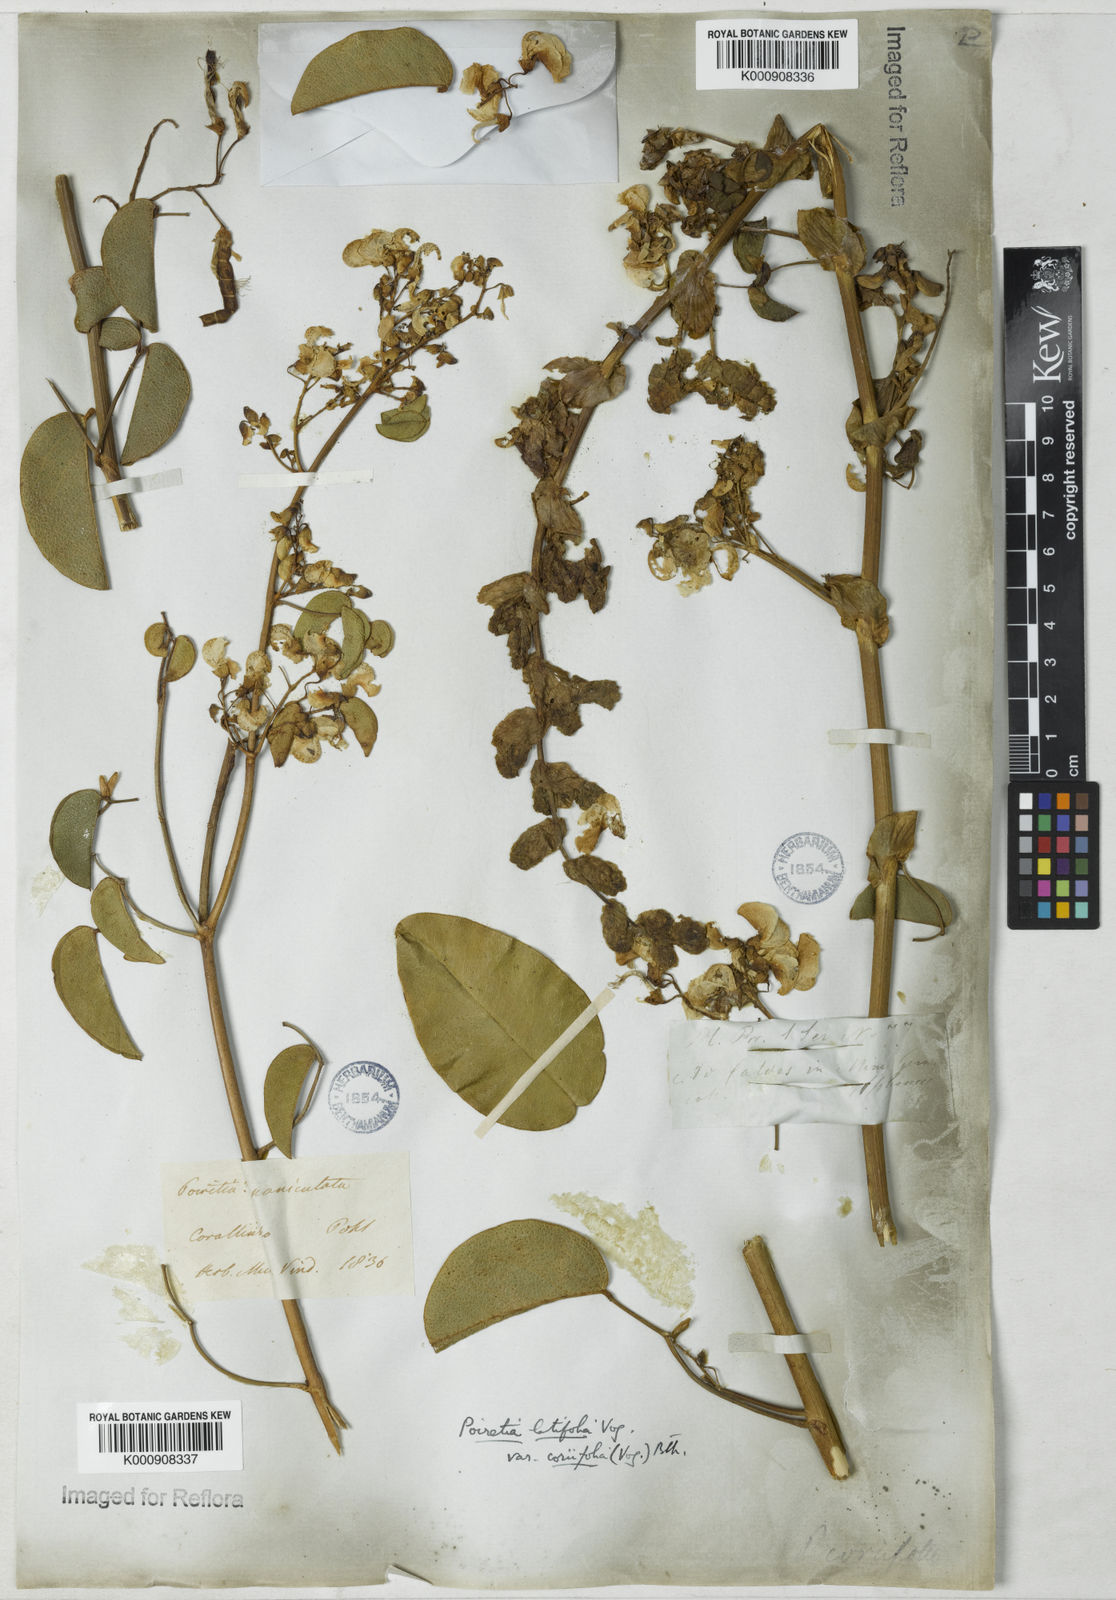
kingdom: Plantae
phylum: Tracheophyta
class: Magnoliopsida
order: Fabales
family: Fabaceae
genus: Poiretia
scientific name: Poiretia coriifolia
